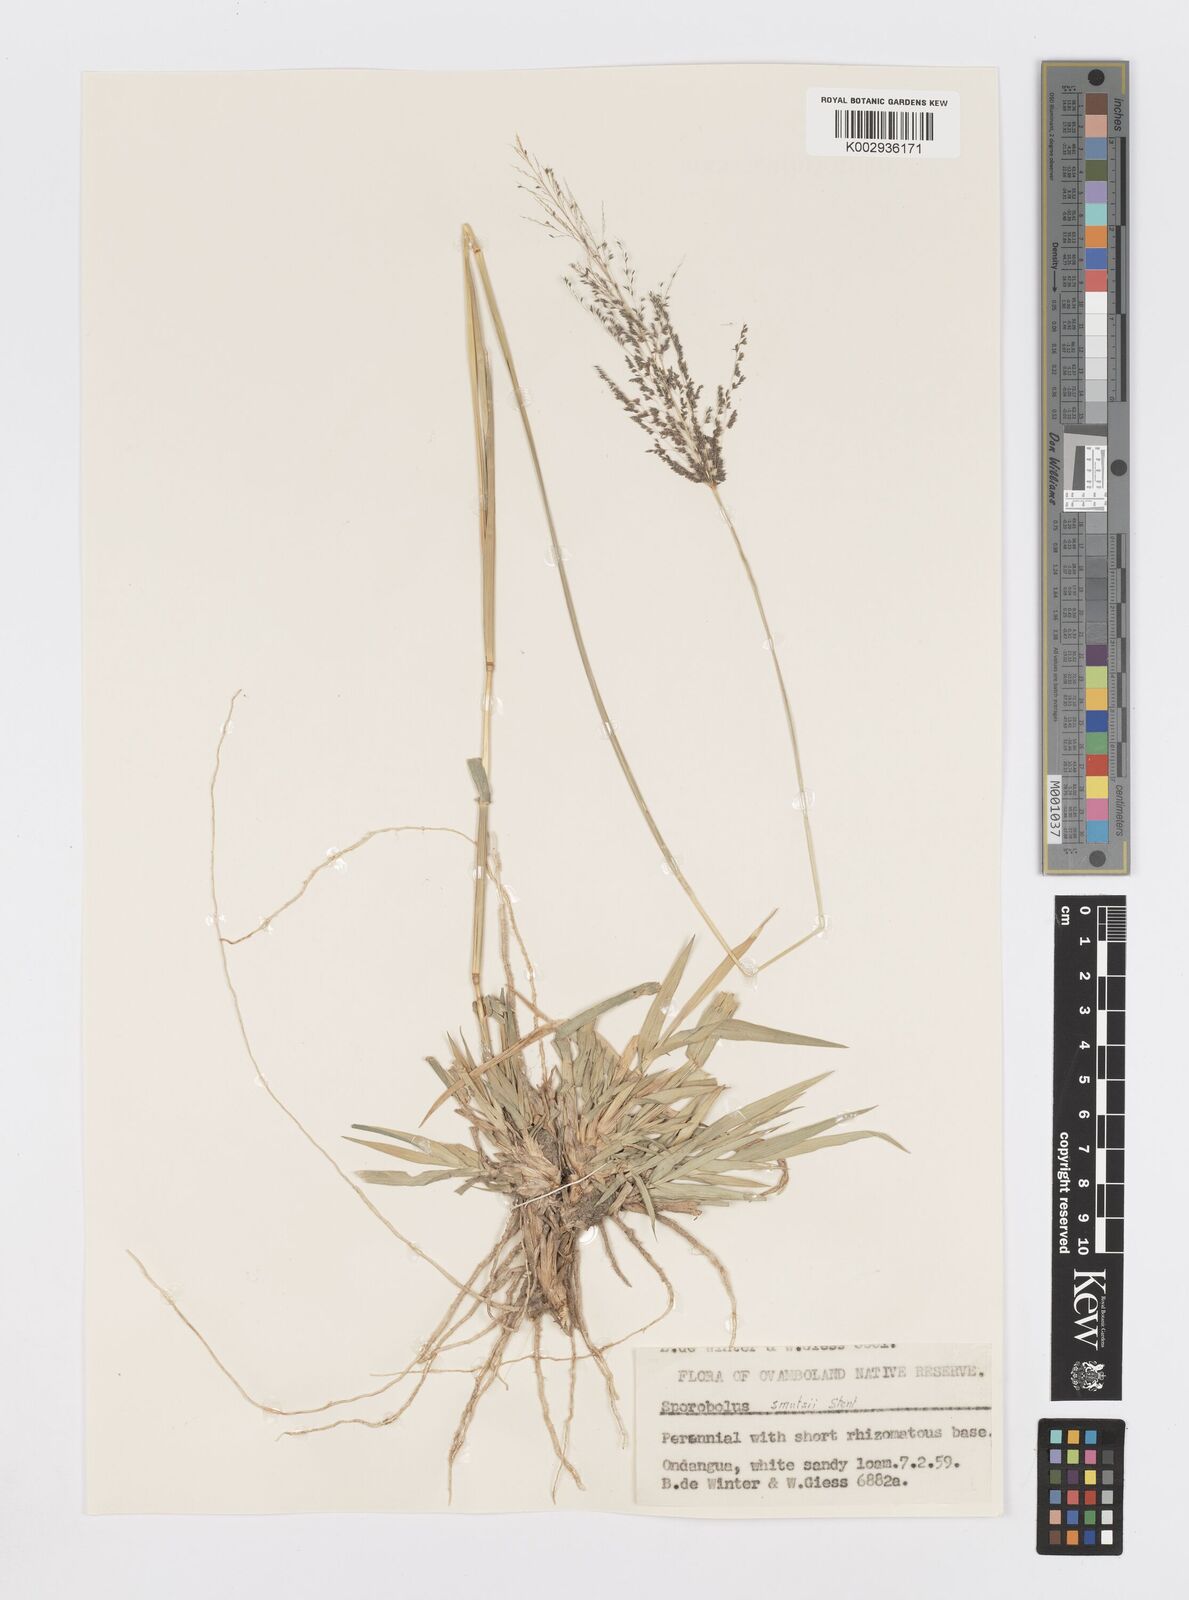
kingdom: Plantae
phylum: Tracheophyta
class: Liliopsida
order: Poales
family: Poaceae
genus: Sporobolus
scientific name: Sporobolus ioclados
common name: Pan dropseed
